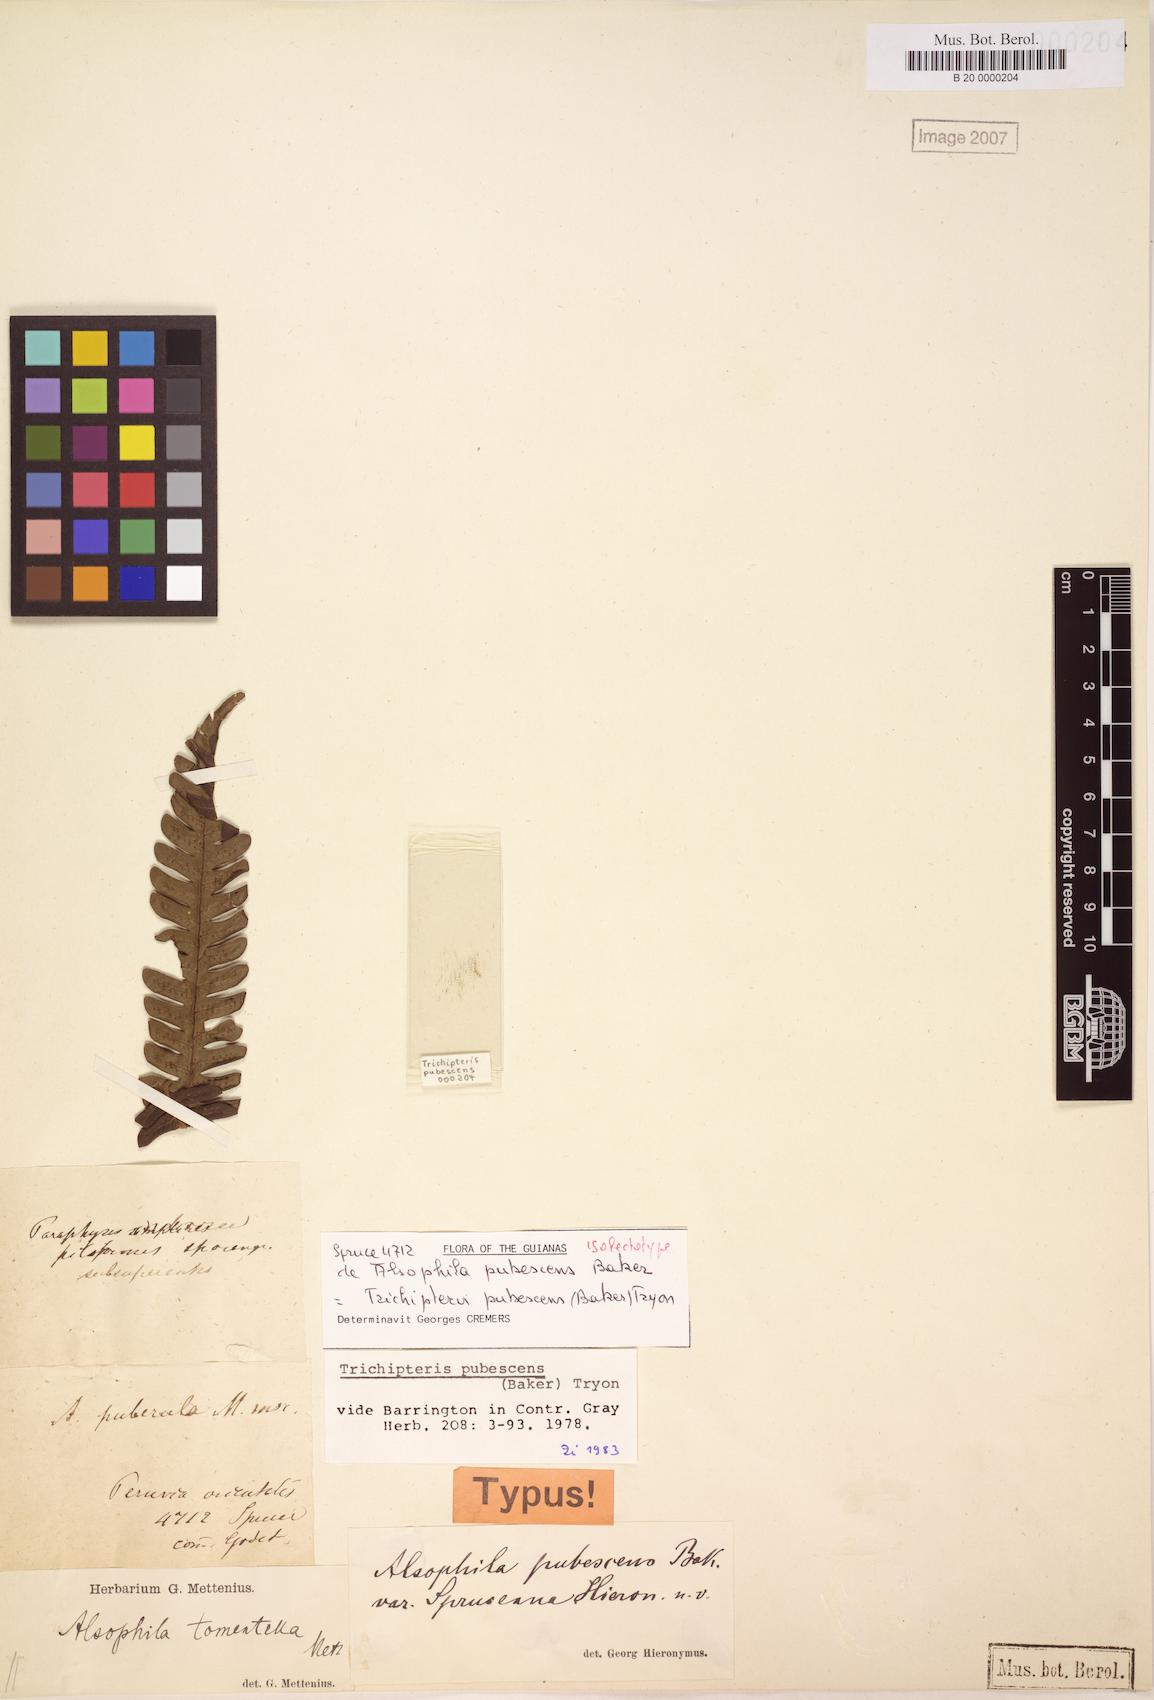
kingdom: Plantae
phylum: Tracheophyta
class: Polypodiopsida
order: Cyatheales
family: Cyatheaceae
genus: Cyathea
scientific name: Cyathea bipinnatifida
